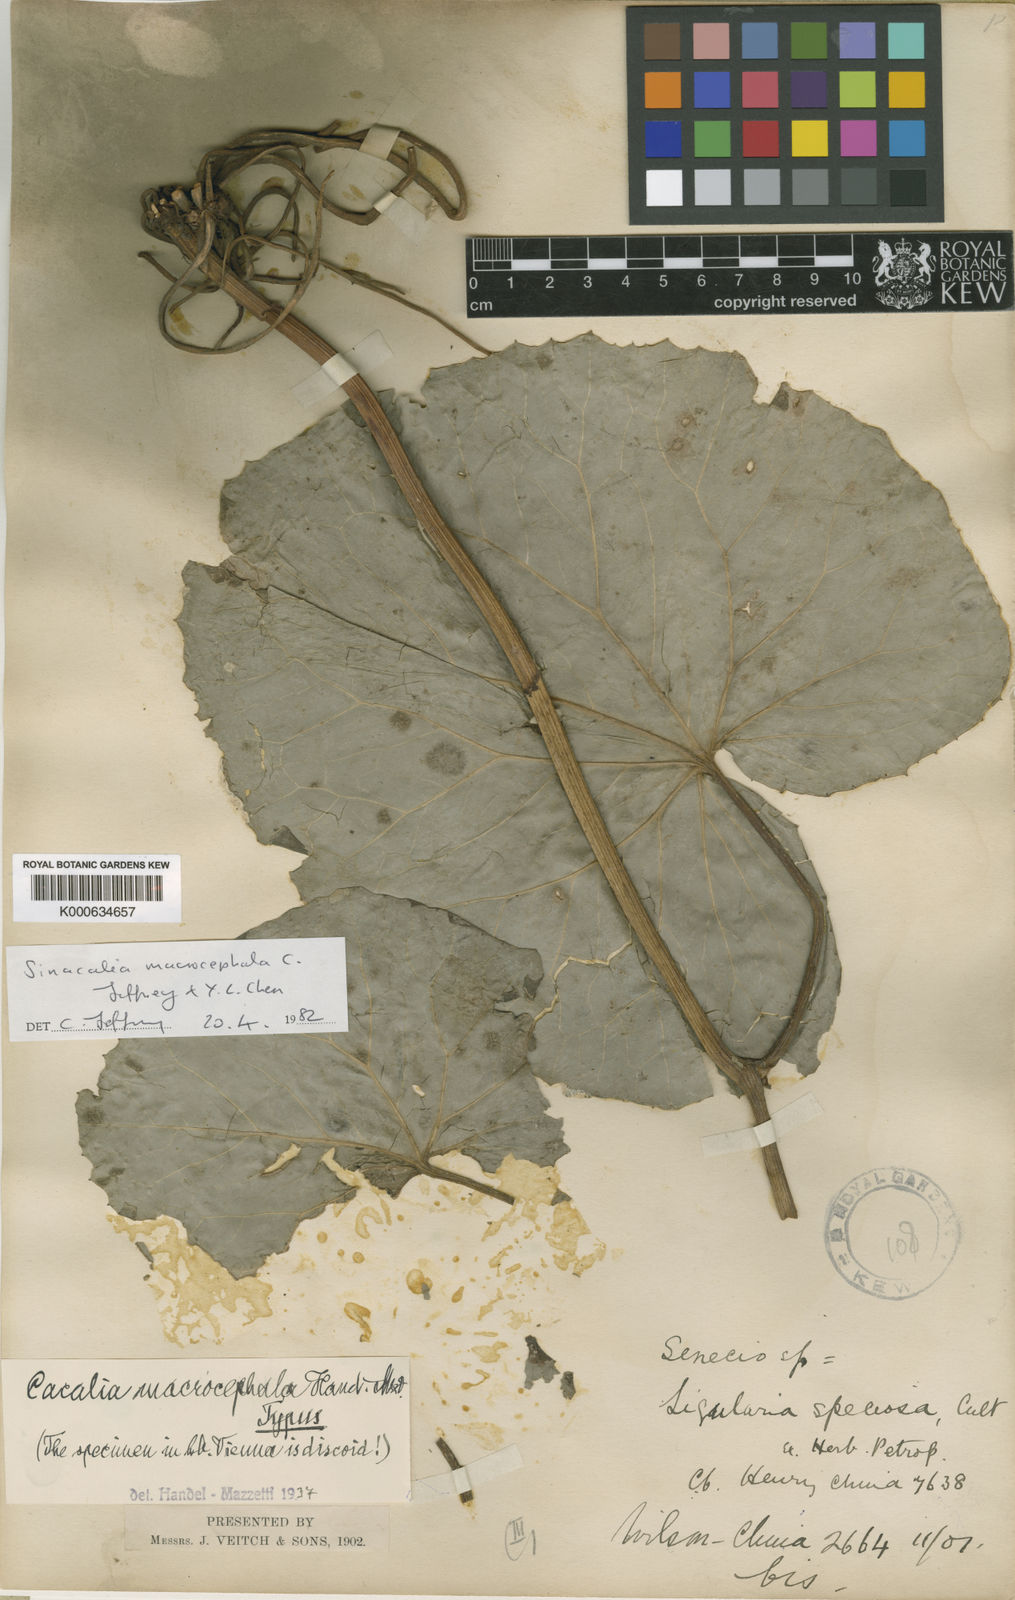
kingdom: Plantae
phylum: Tracheophyta
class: Magnoliopsida
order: Asterales
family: Asteraceae
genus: Sinacalia
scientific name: Sinacalia macrocephala
